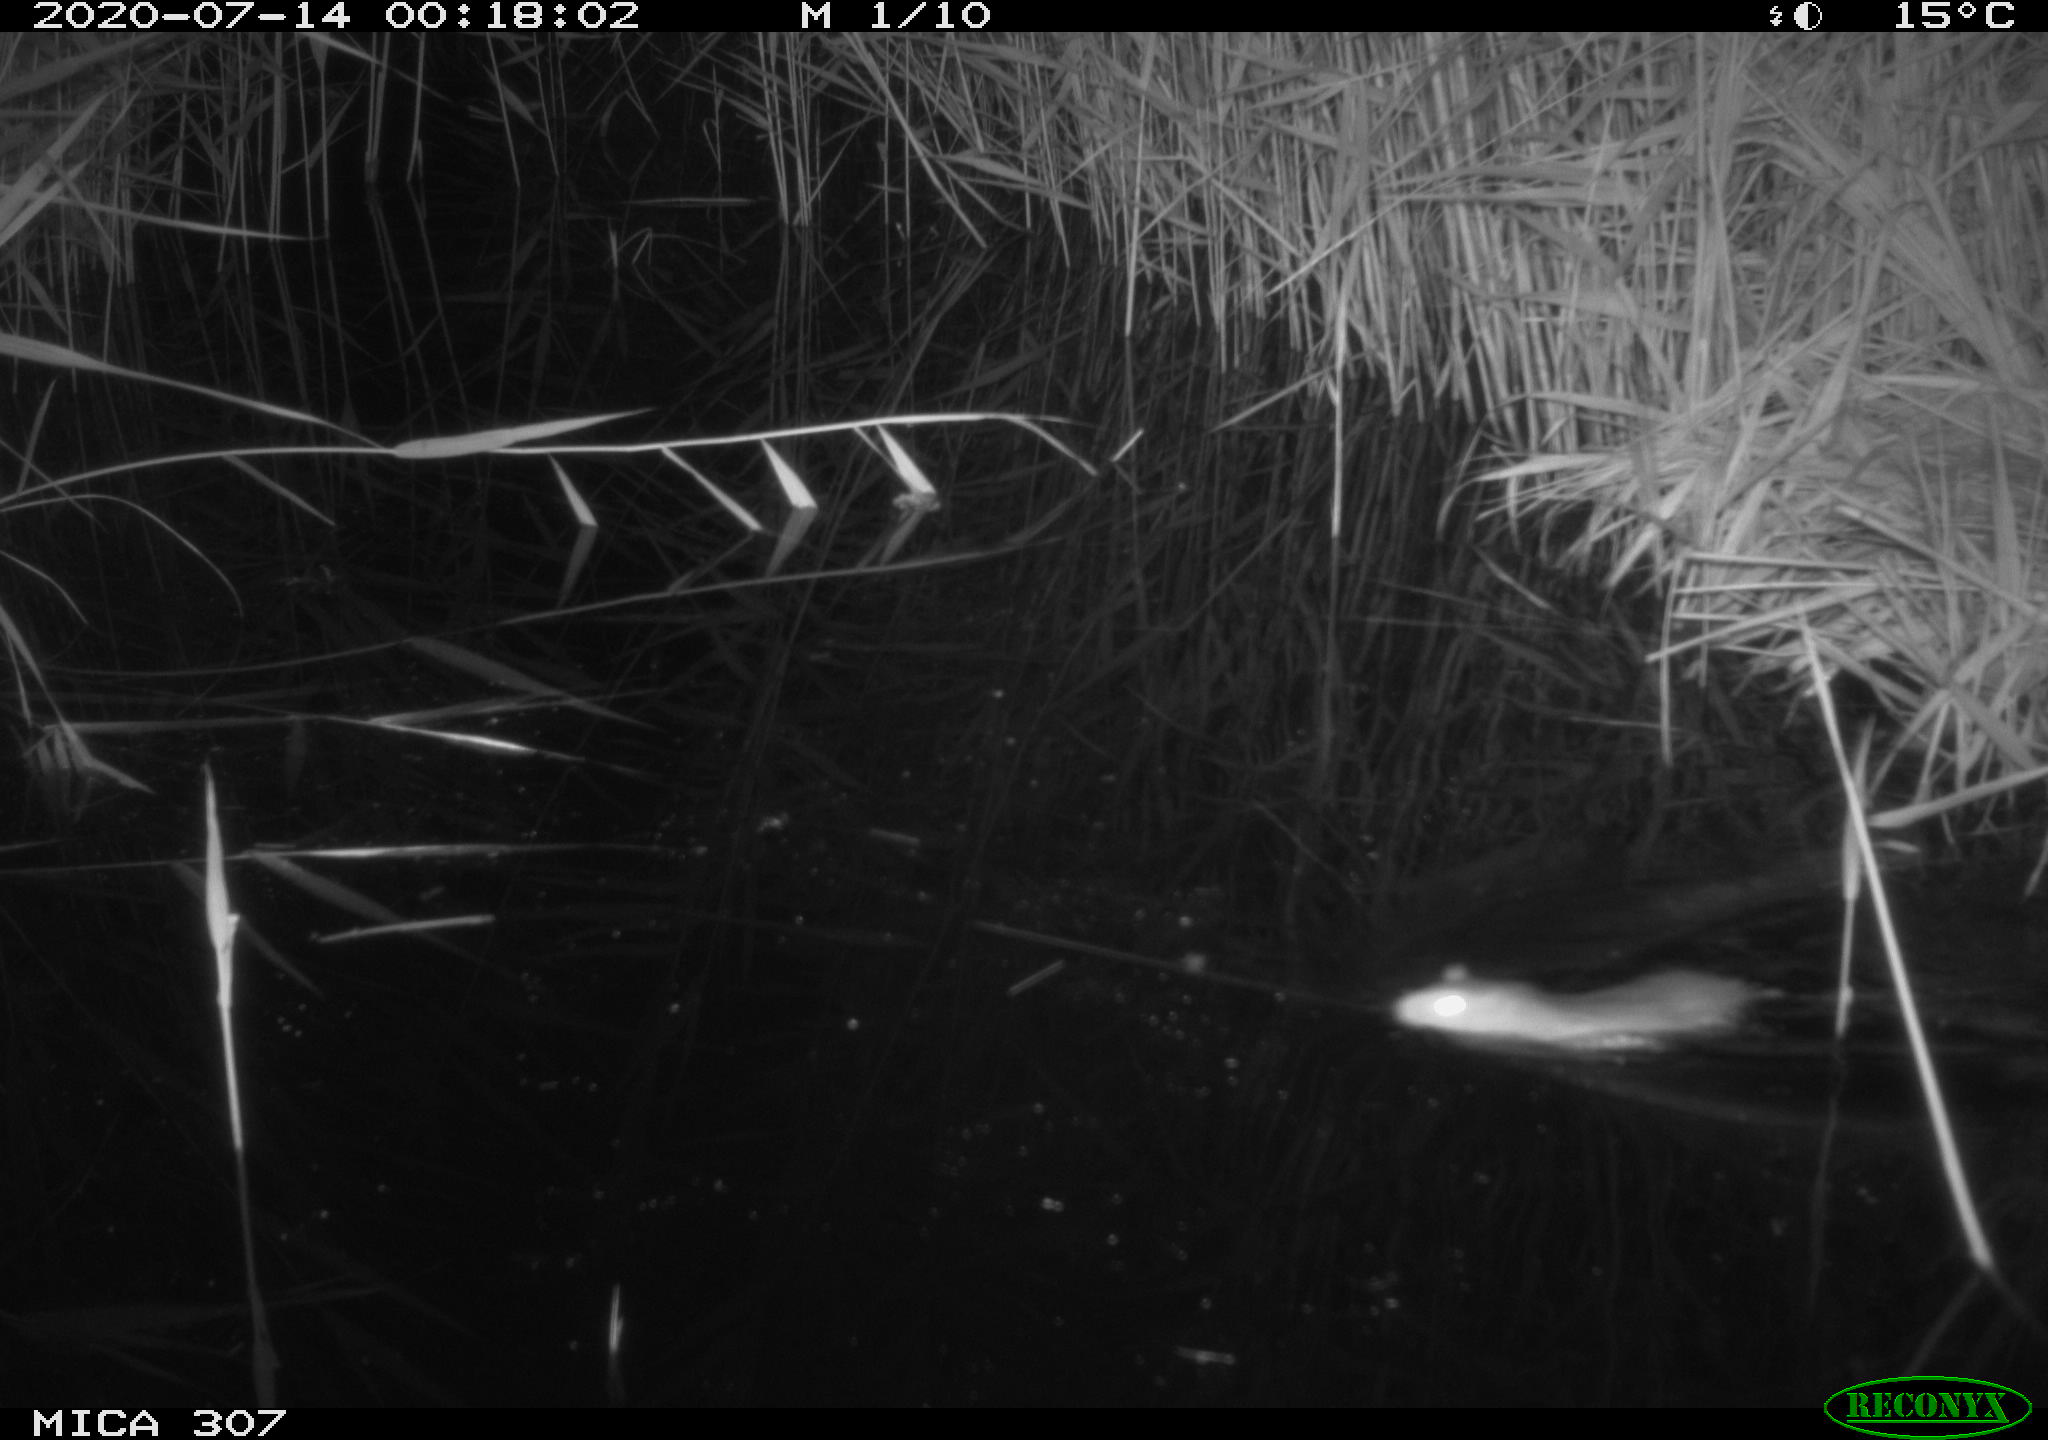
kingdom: Animalia
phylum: Chordata
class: Mammalia
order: Rodentia
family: Muridae
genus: Rattus
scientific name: Rattus norvegicus
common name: Brown rat
